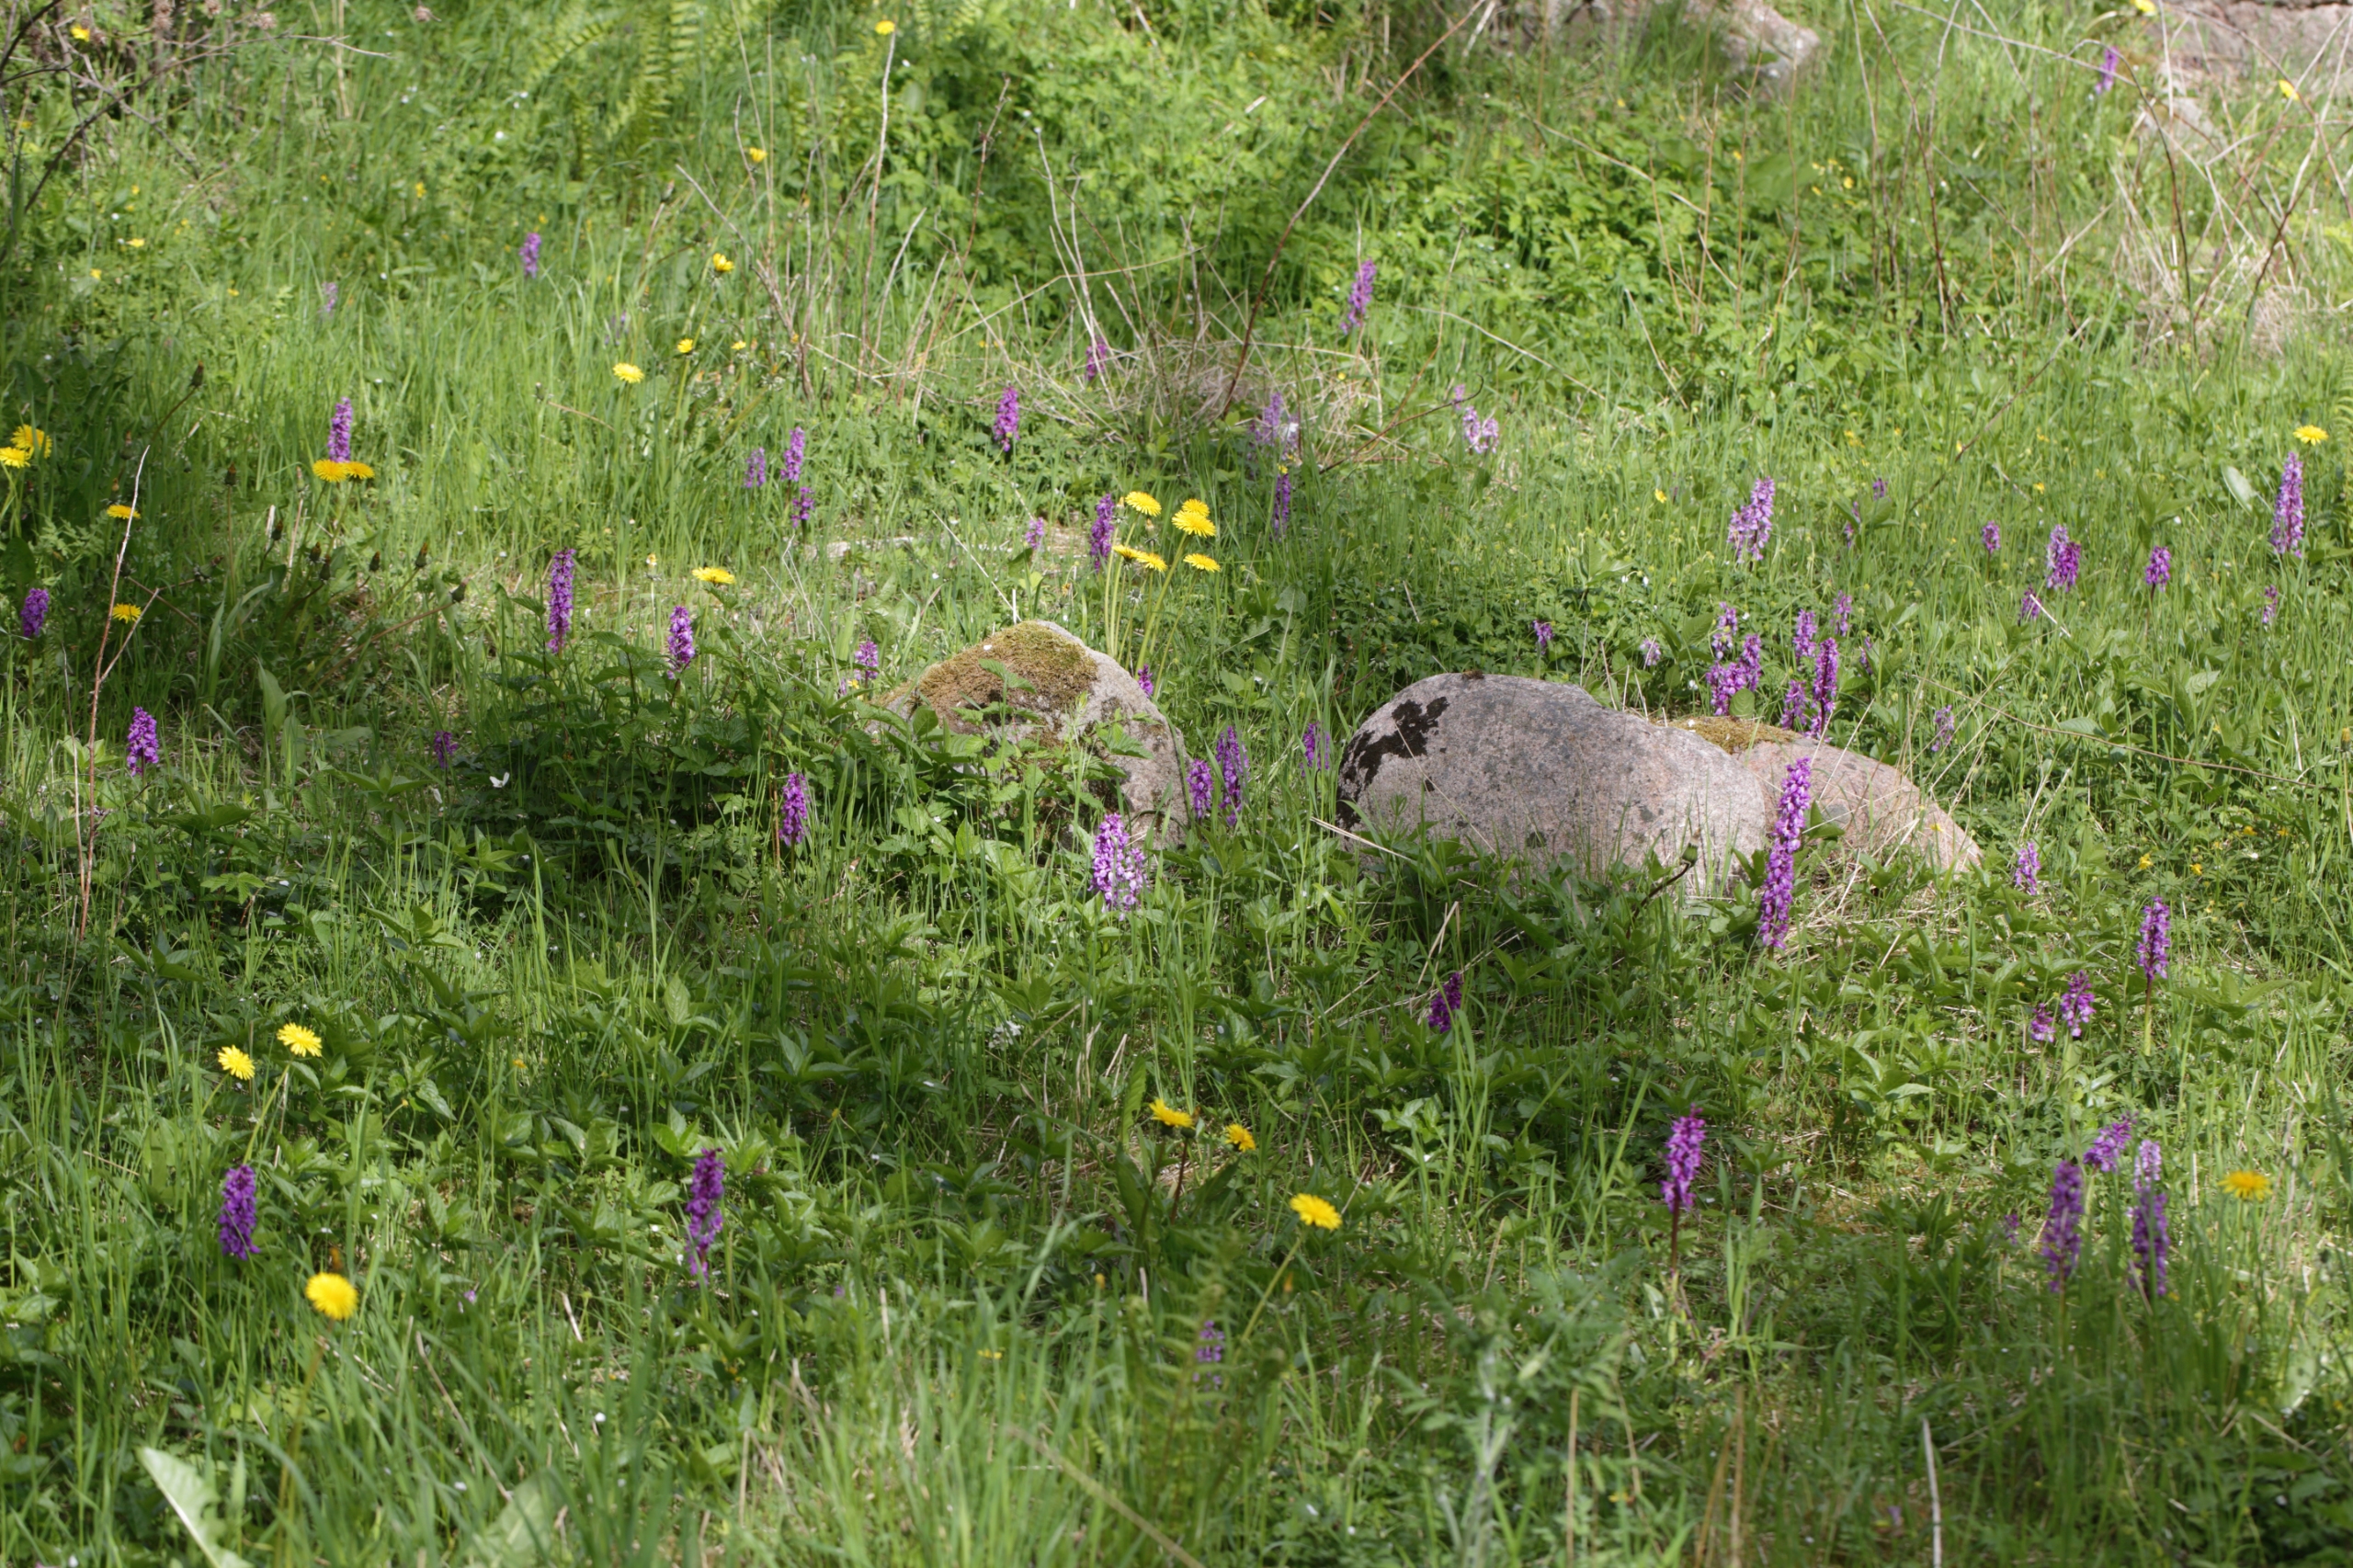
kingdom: Plantae
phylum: Tracheophyta
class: Liliopsida
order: Asparagales
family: Orchidaceae
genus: Orchis
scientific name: Orchis mascula
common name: Tyndakset gøgeurt
